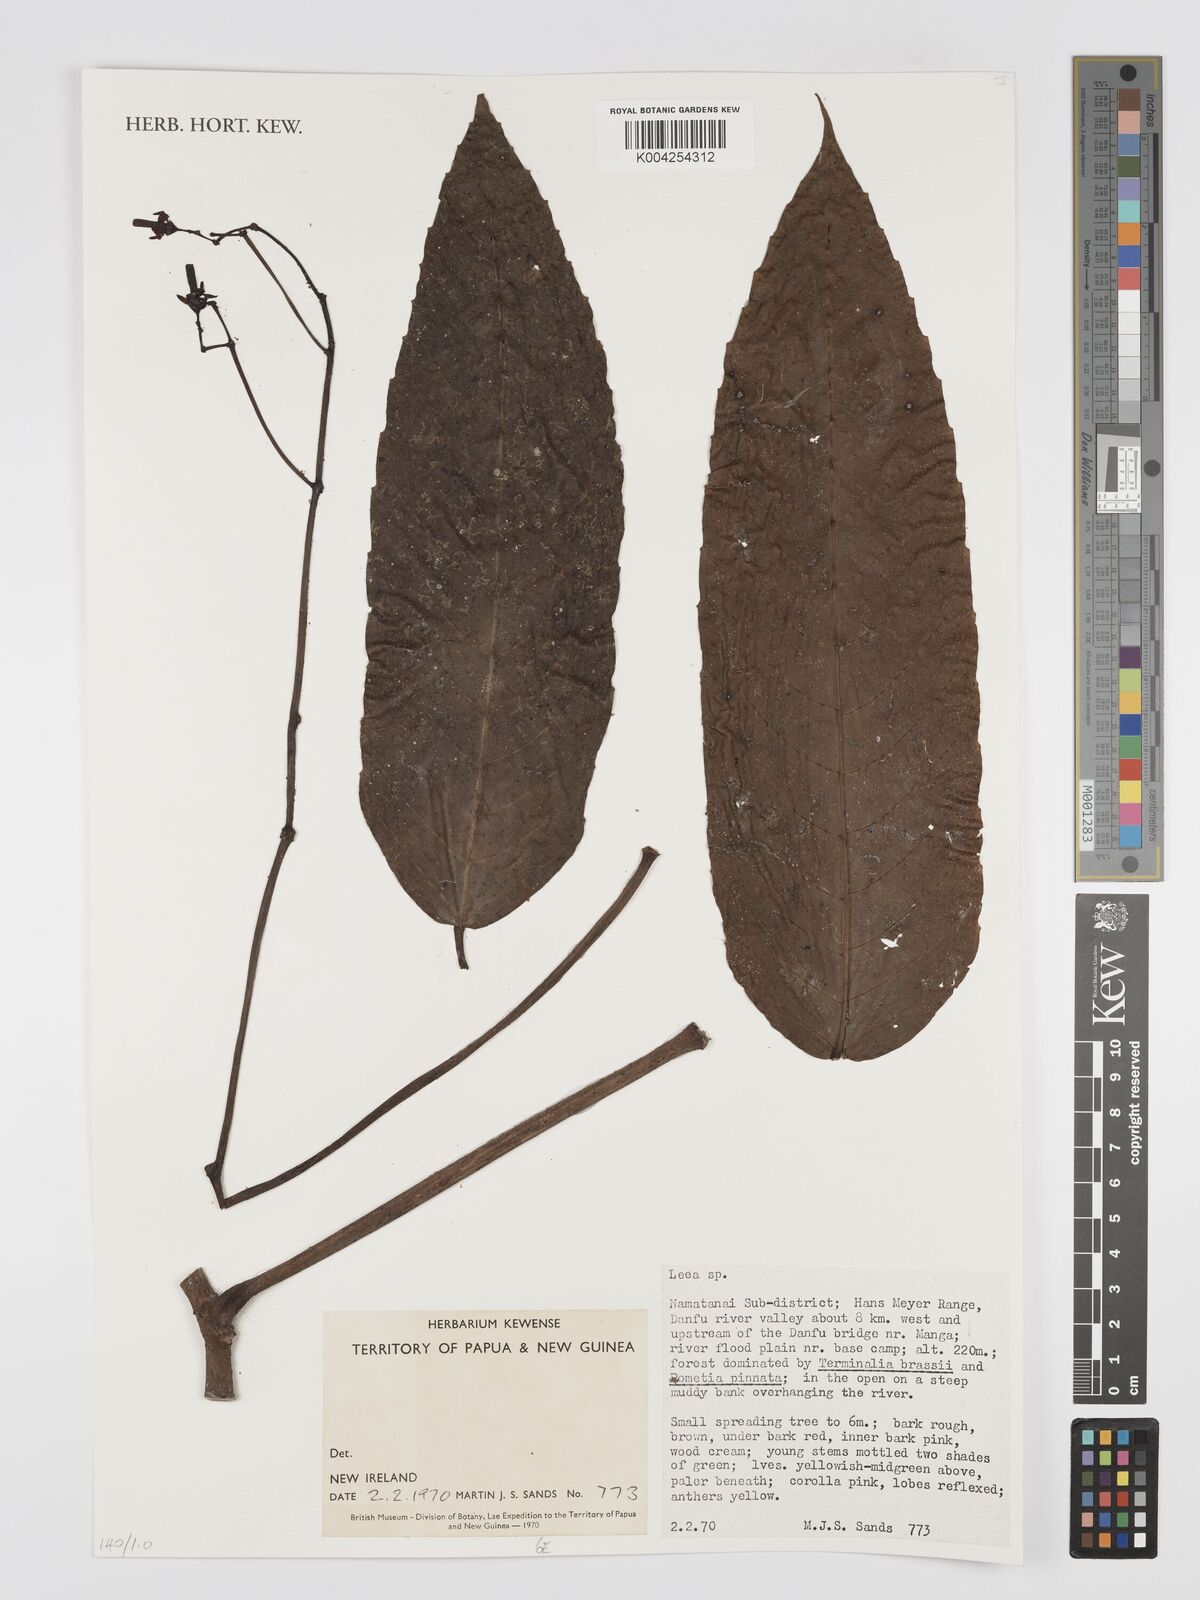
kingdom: Plantae
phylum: Tracheophyta
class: Magnoliopsida
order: Vitales
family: Vitaceae
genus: Leea
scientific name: Leea
